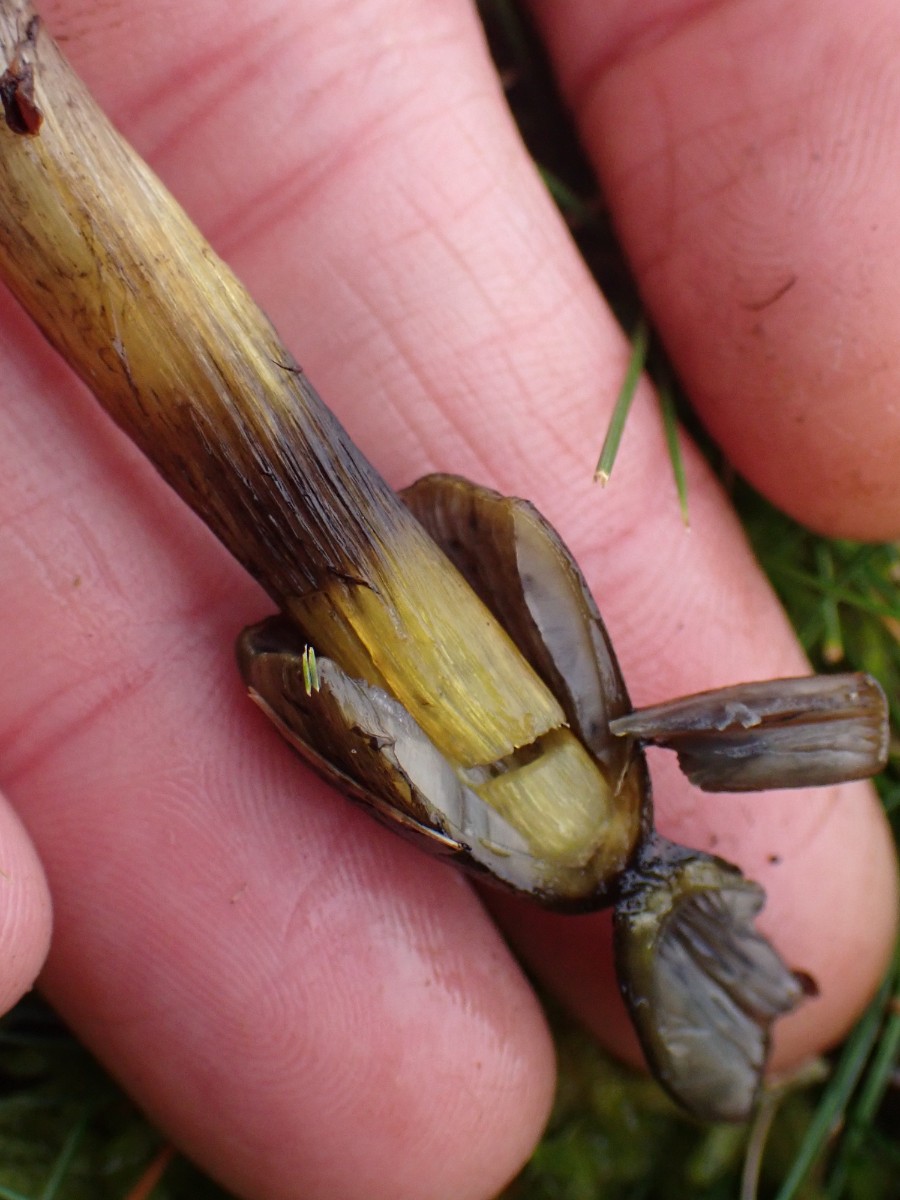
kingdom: Fungi
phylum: Basidiomycota
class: Agaricomycetes
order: Agaricales
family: Hygrophoraceae
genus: Hygrocybe
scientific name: Hygrocybe conica
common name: kegle-vokshat
